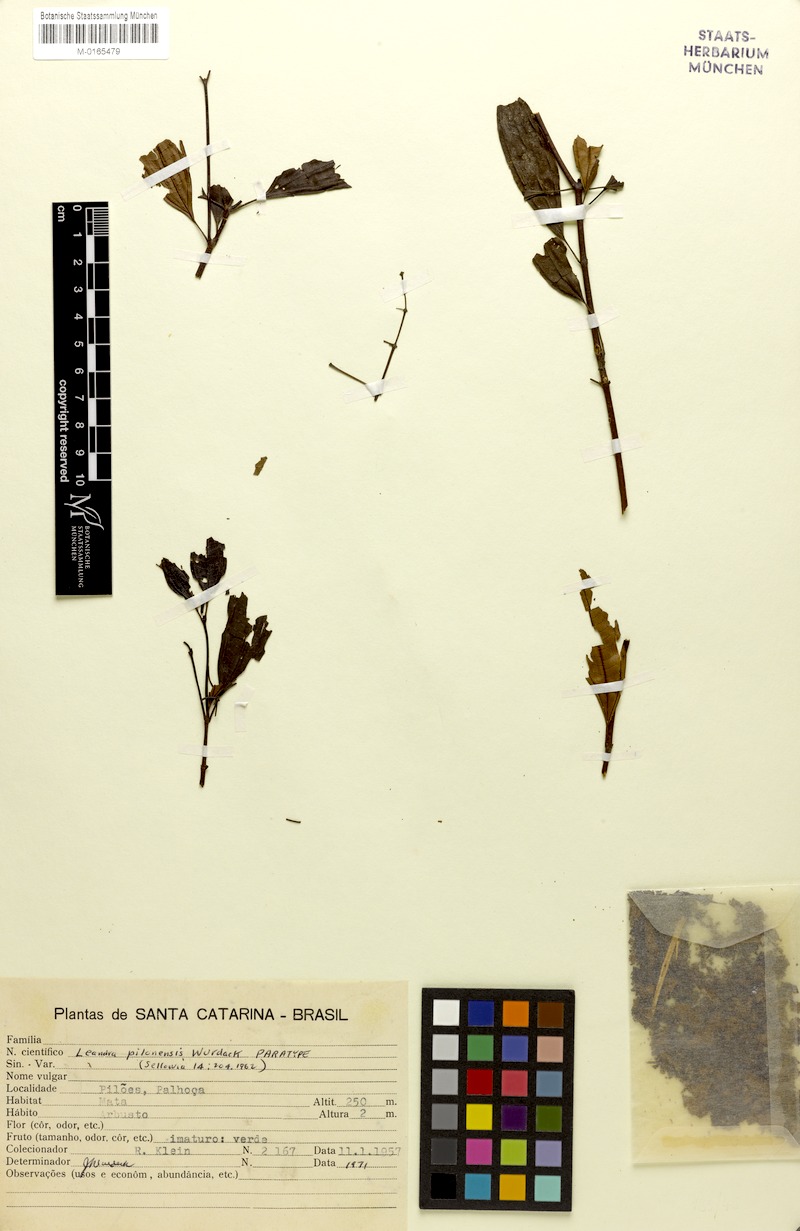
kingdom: Plantae
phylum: Tracheophyta
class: Magnoliopsida
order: Myrtales
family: Melastomataceae
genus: Miconia
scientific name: Miconia pilonensis
